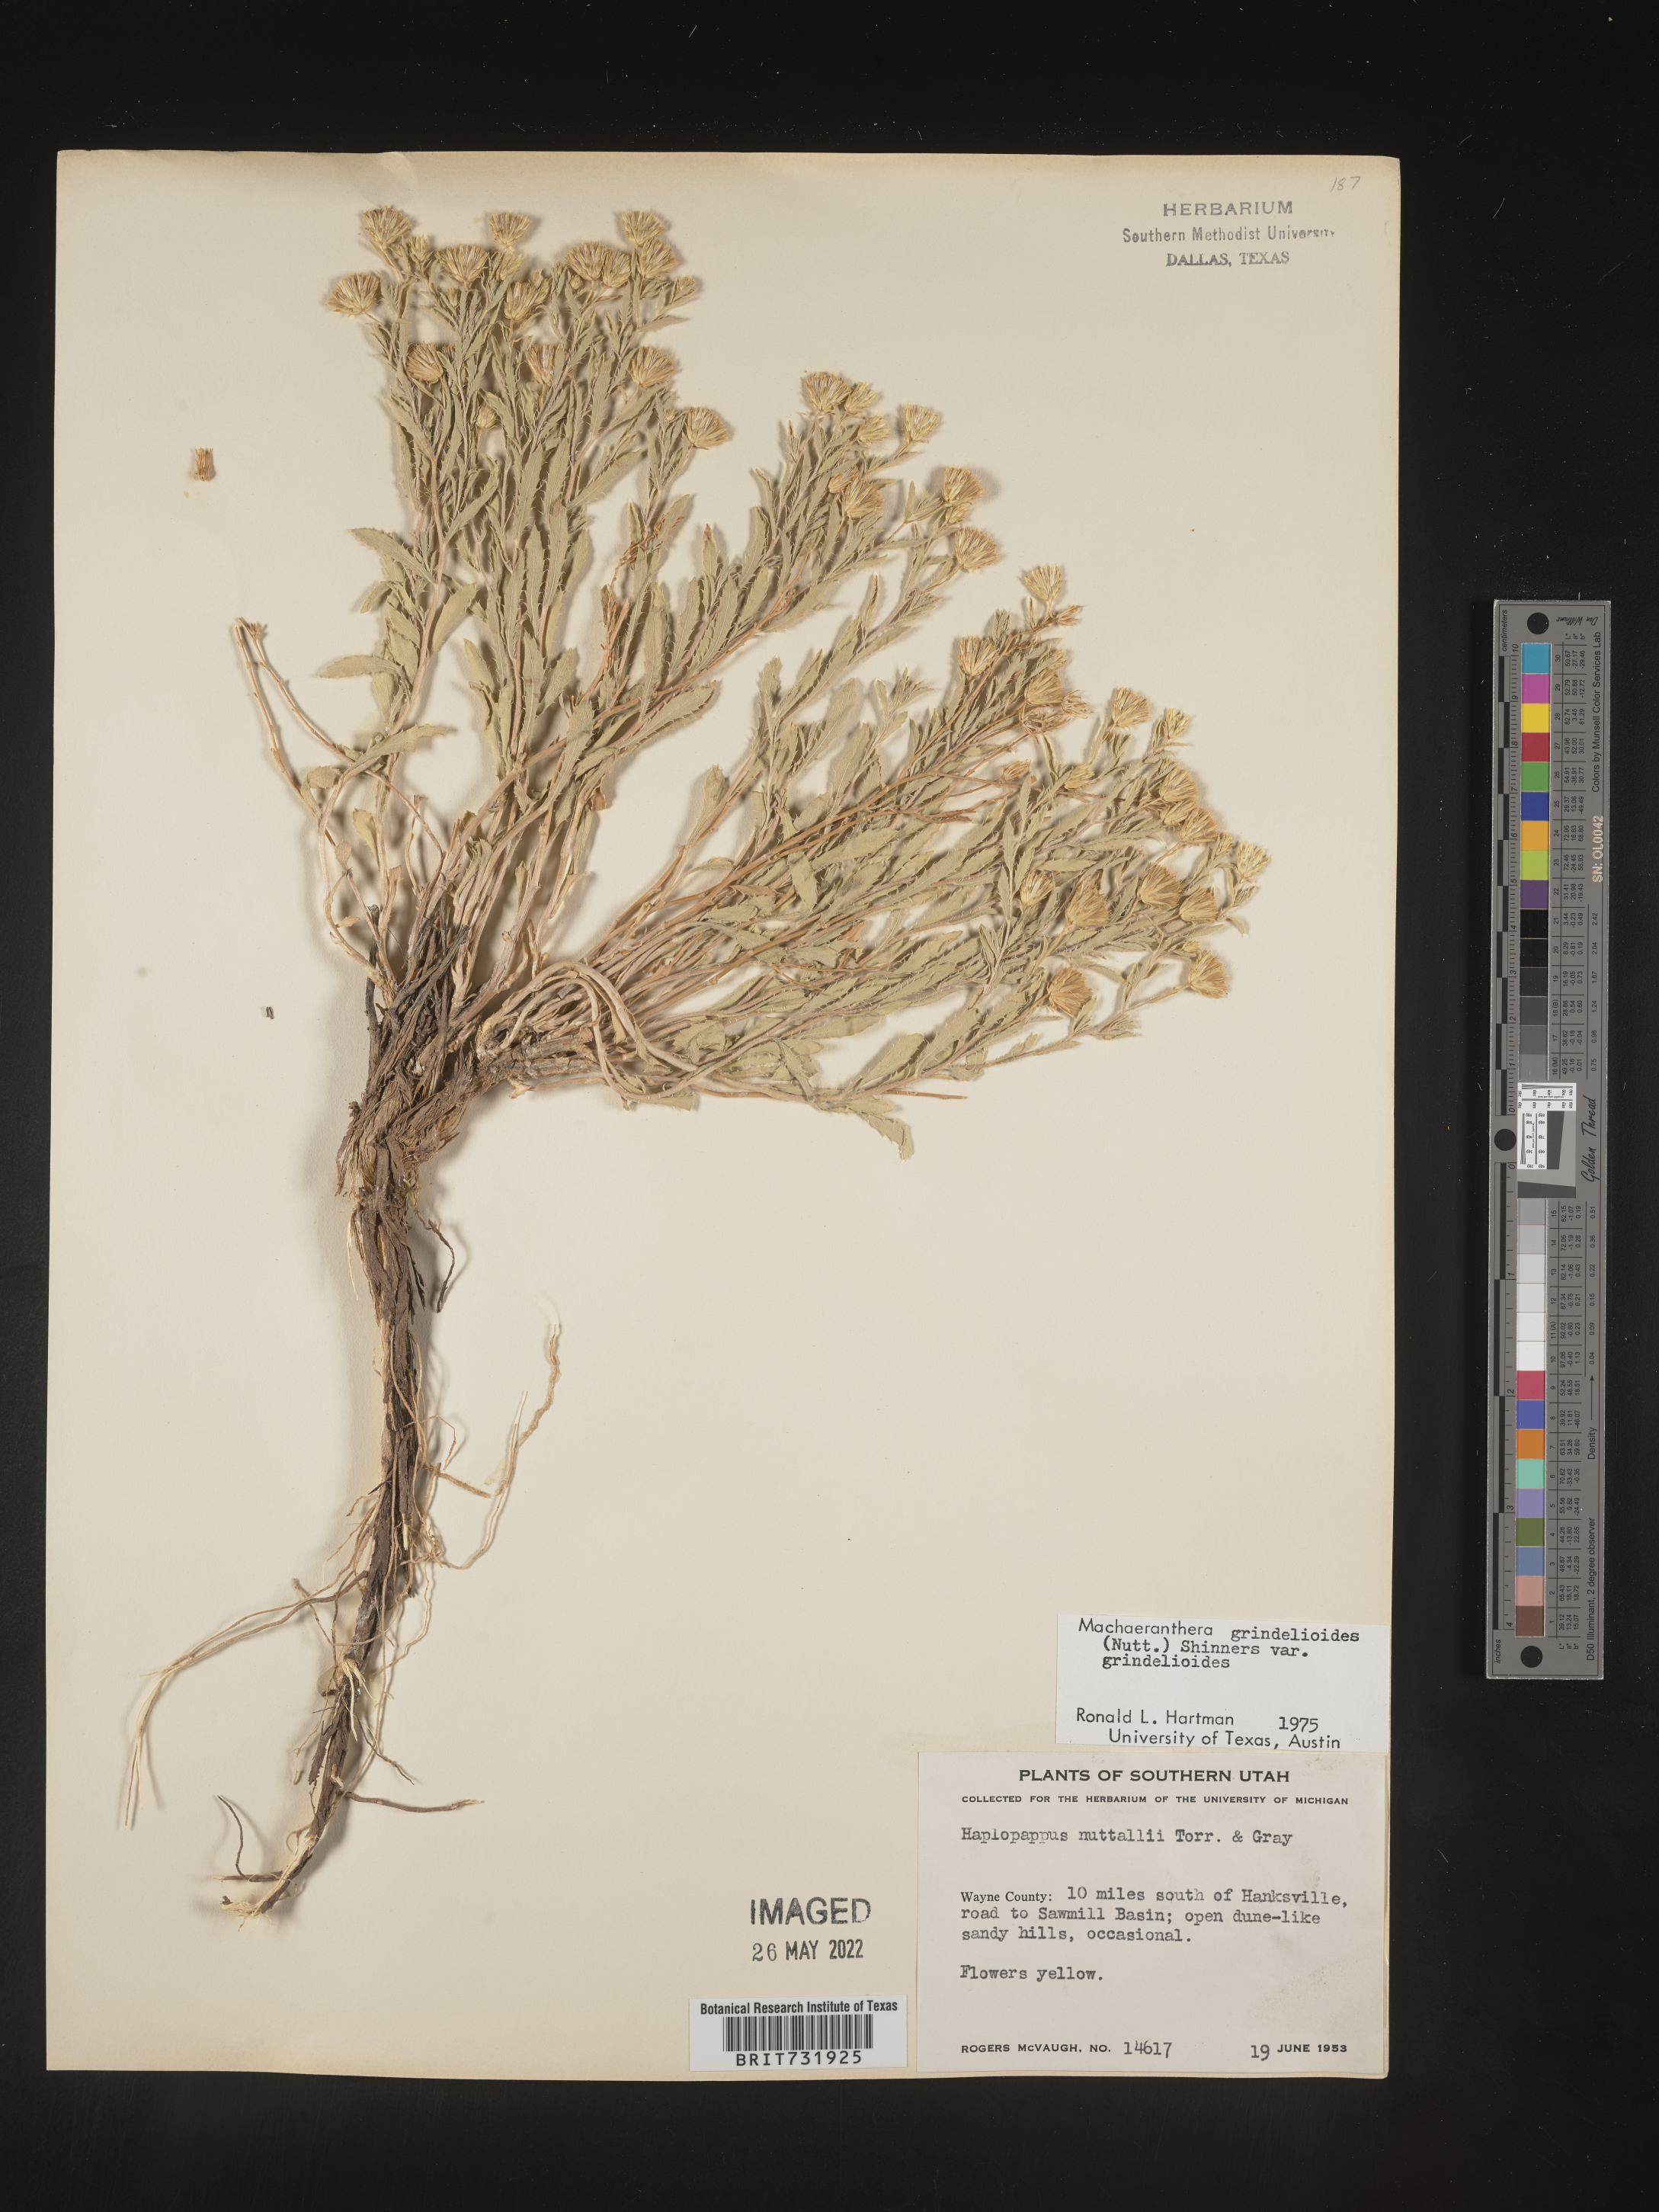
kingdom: Plantae
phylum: Tracheophyta
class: Magnoliopsida
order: Asterales
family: Asteraceae
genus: Xanthisma
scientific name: Xanthisma grindelioides
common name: Goldenweed
